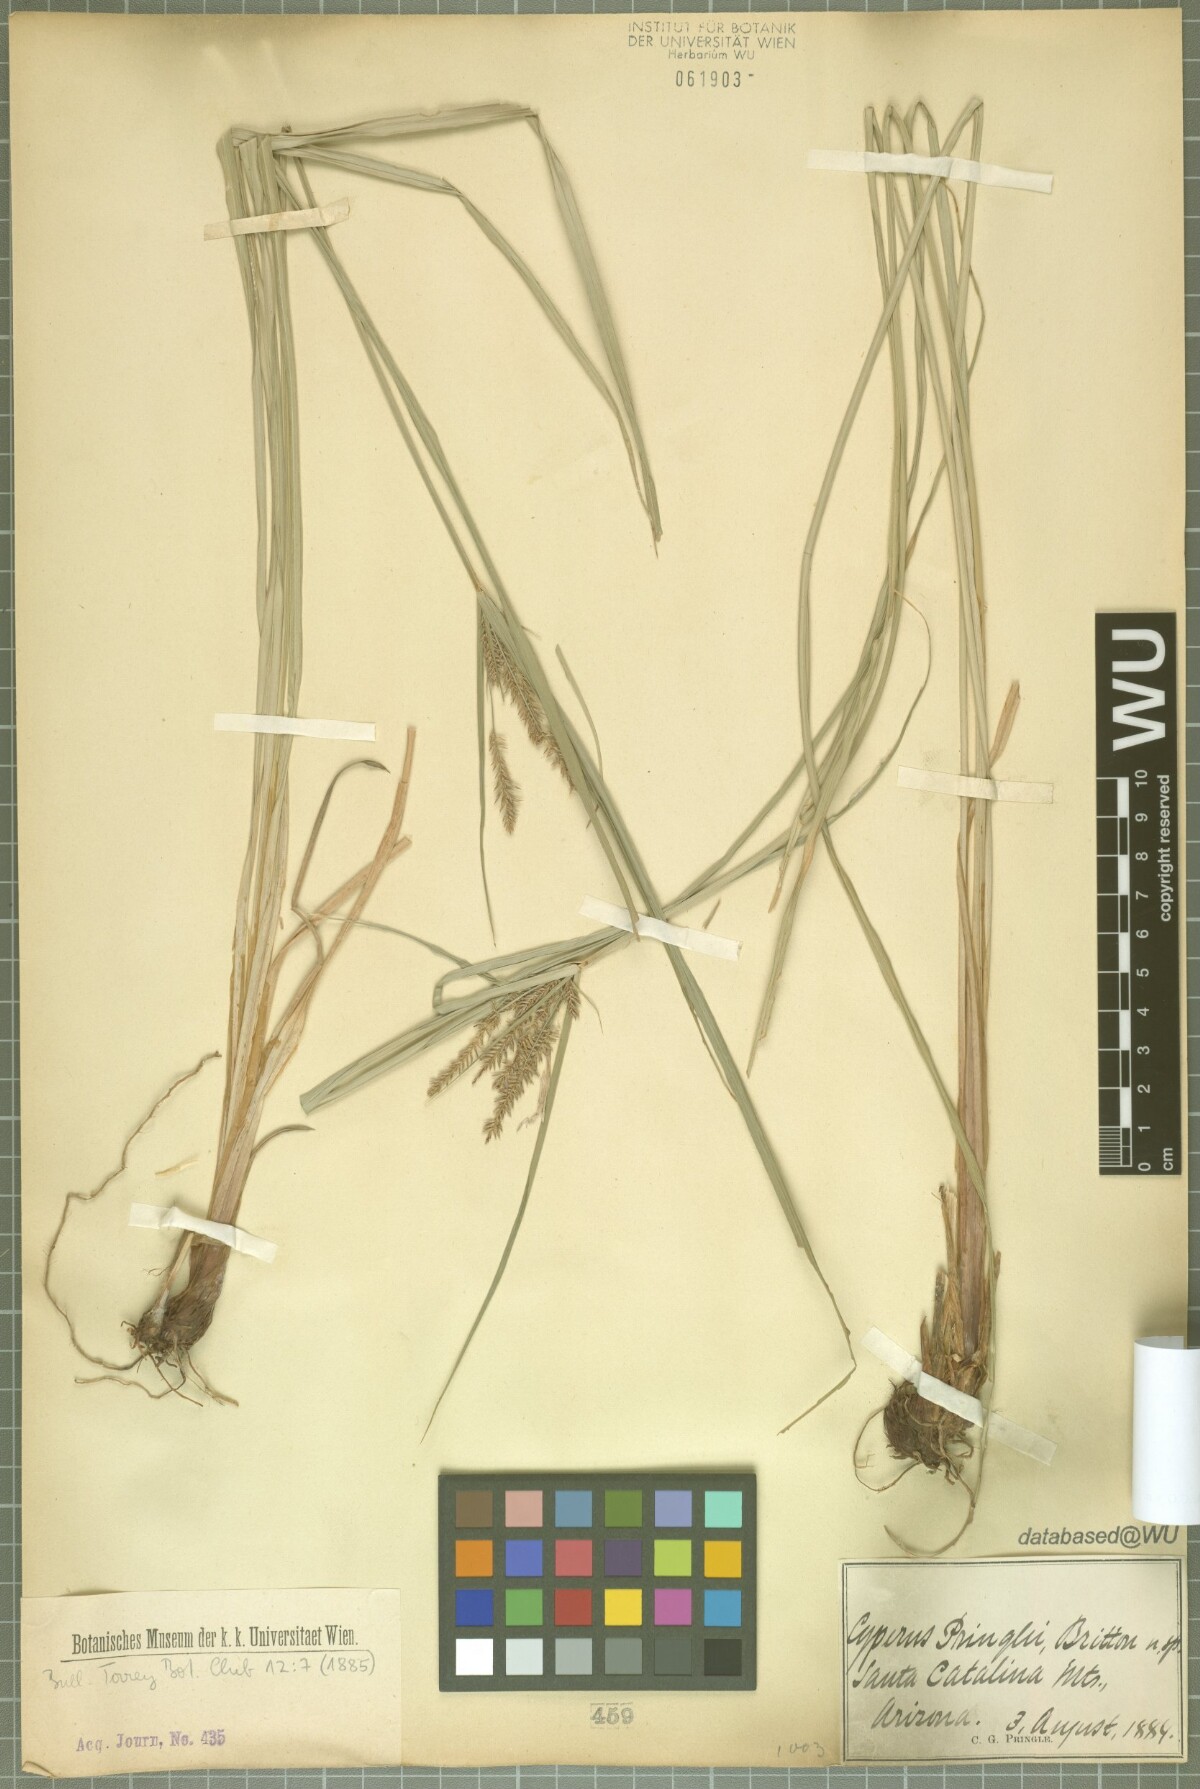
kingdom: Plantae
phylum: Tracheophyta
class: Liliopsida
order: Poales
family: Cyperaceae
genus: Cyperus
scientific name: Cyperus tetragonus
